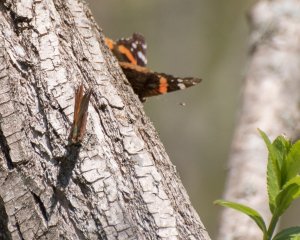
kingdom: Animalia
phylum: Arthropoda
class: Insecta
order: Lepidoptera
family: Nymphalidae
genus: Vanessa
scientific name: Vanessa atalanta
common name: Red Admiral
